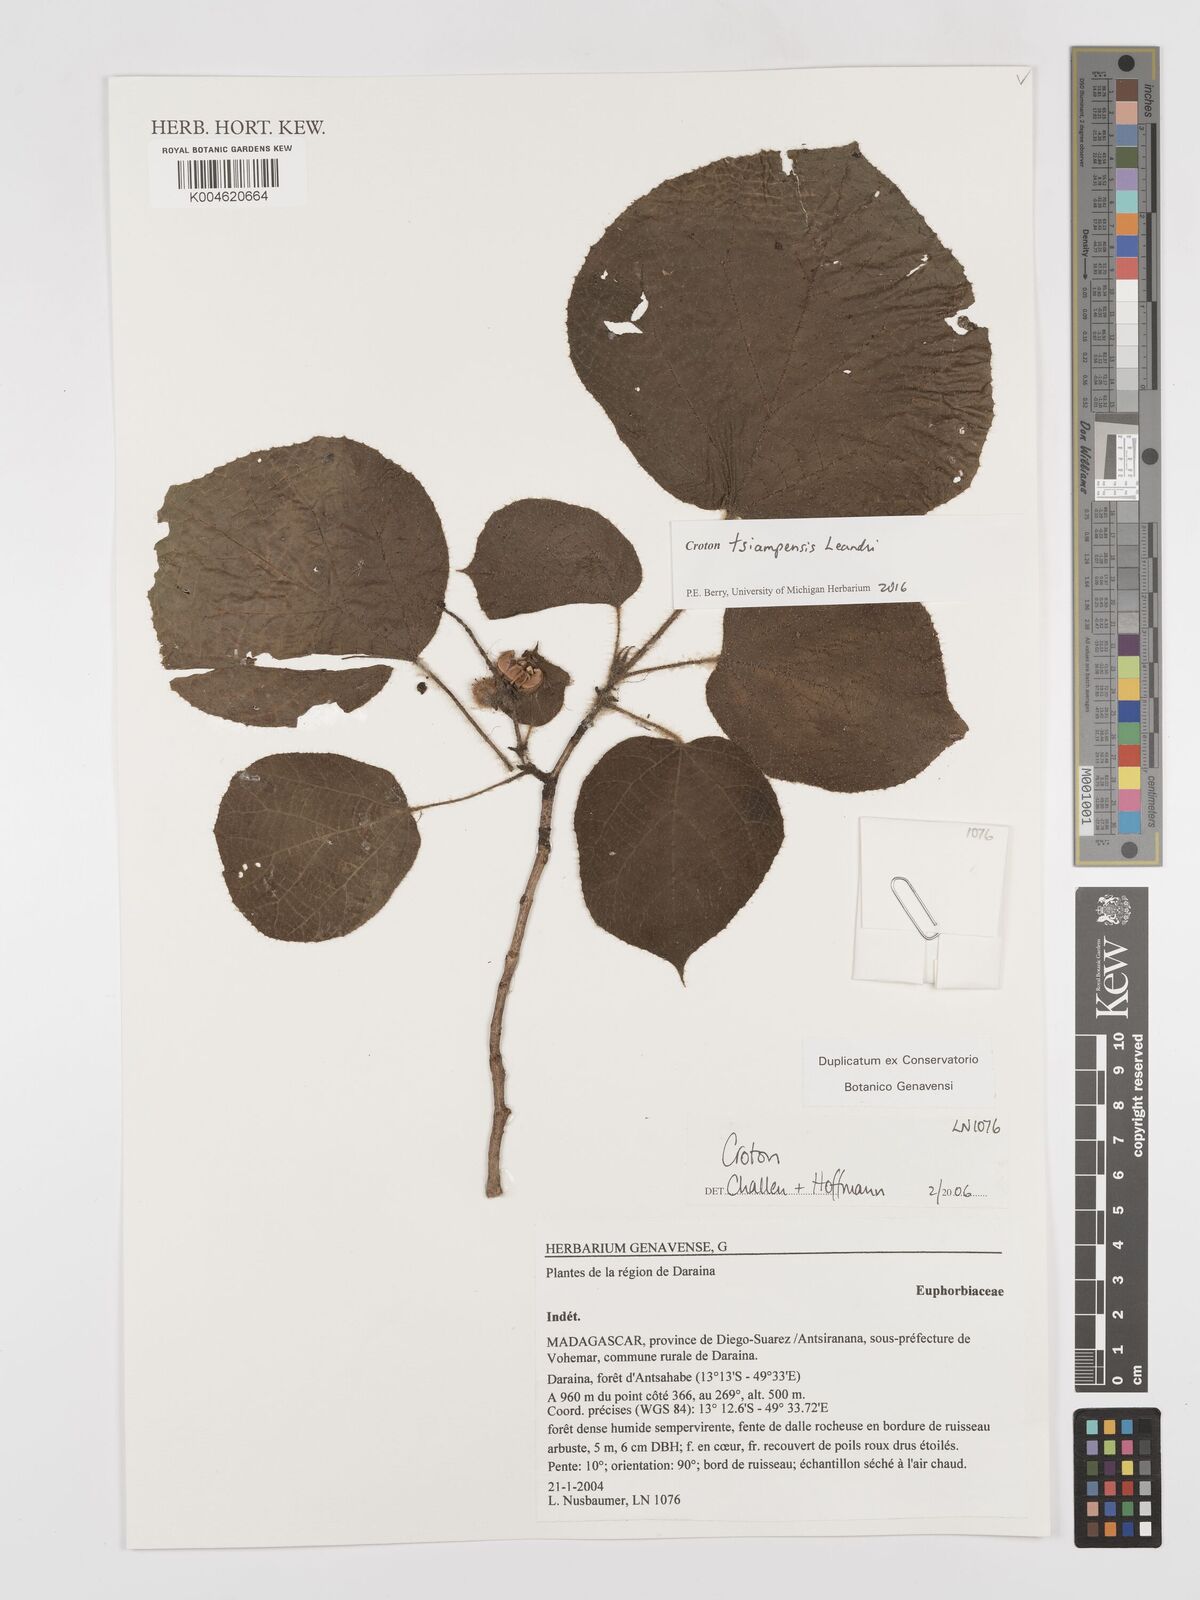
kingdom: Plantae
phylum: Tracheophyta
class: Magnoliopsida
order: Malpighiales
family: Euphorbiaceae
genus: Croton
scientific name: Croton tsiampiensis
